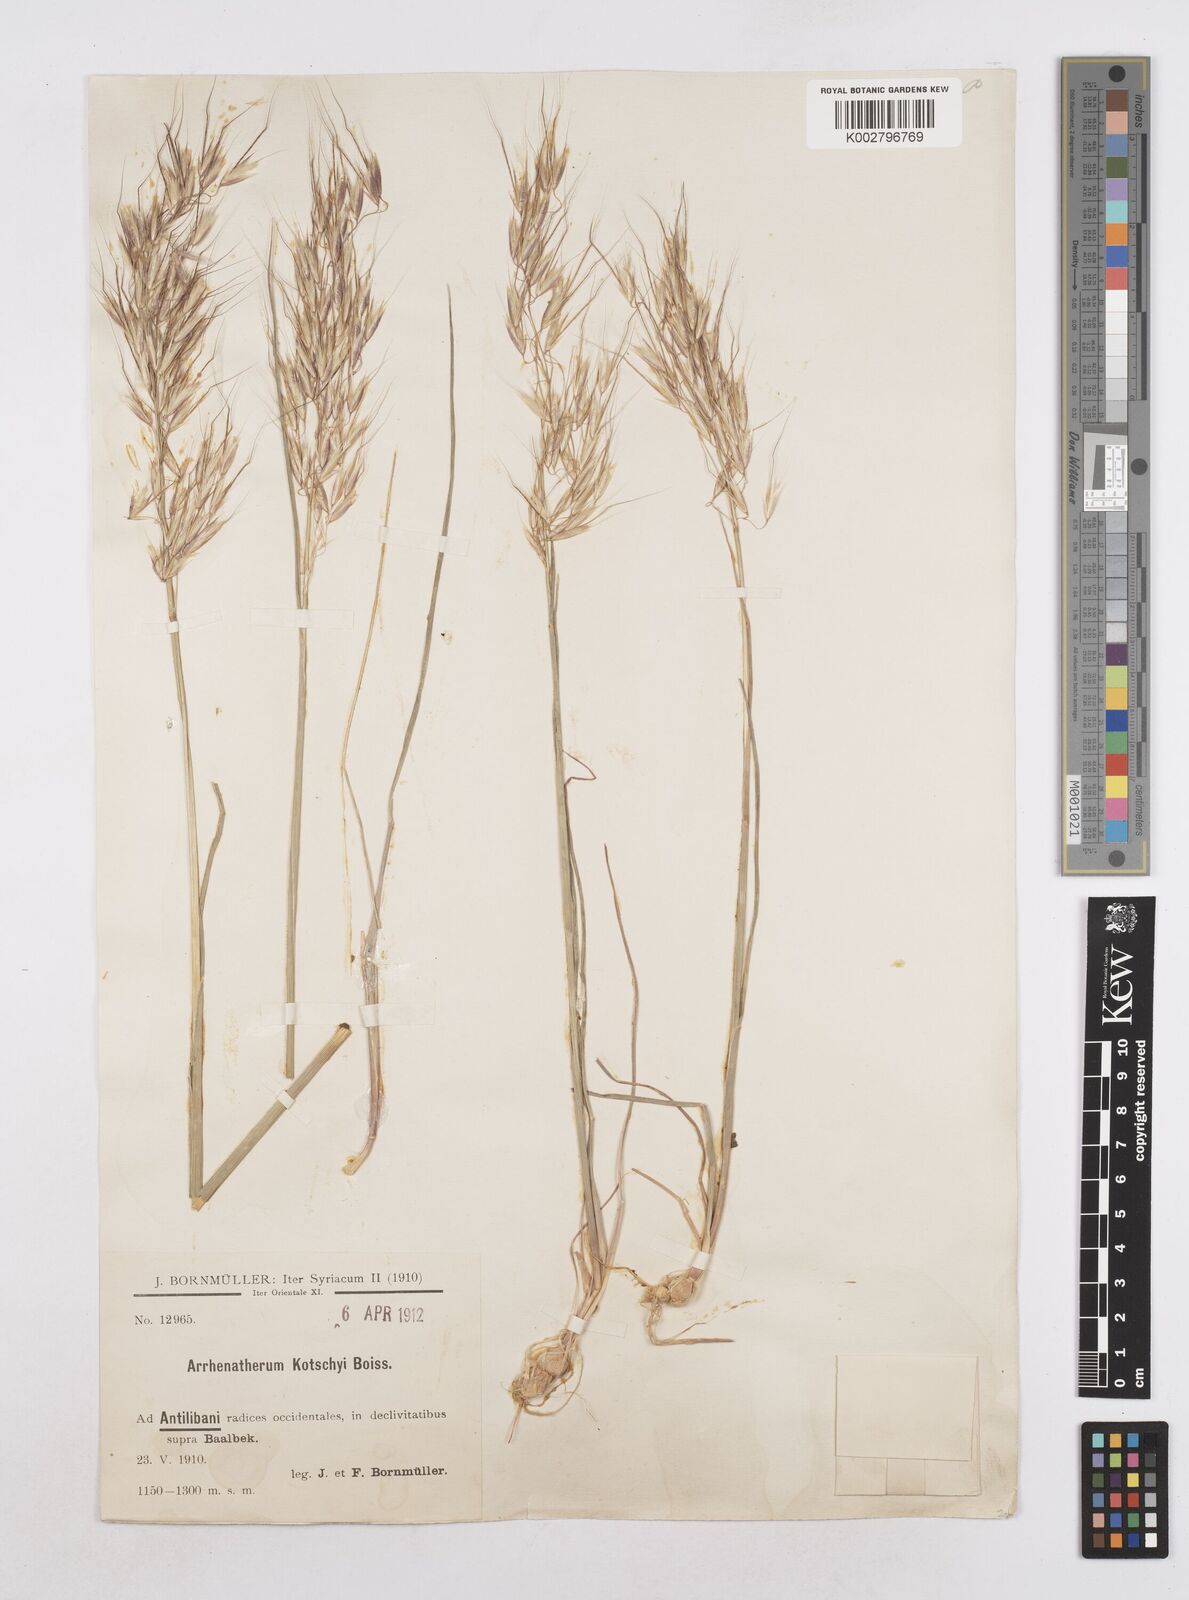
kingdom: Plantae
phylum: Tracheophyta
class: Liliopsida
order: Poales
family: Poaceae
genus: Arrhenatherum
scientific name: Arrhenatherum kotschyi
